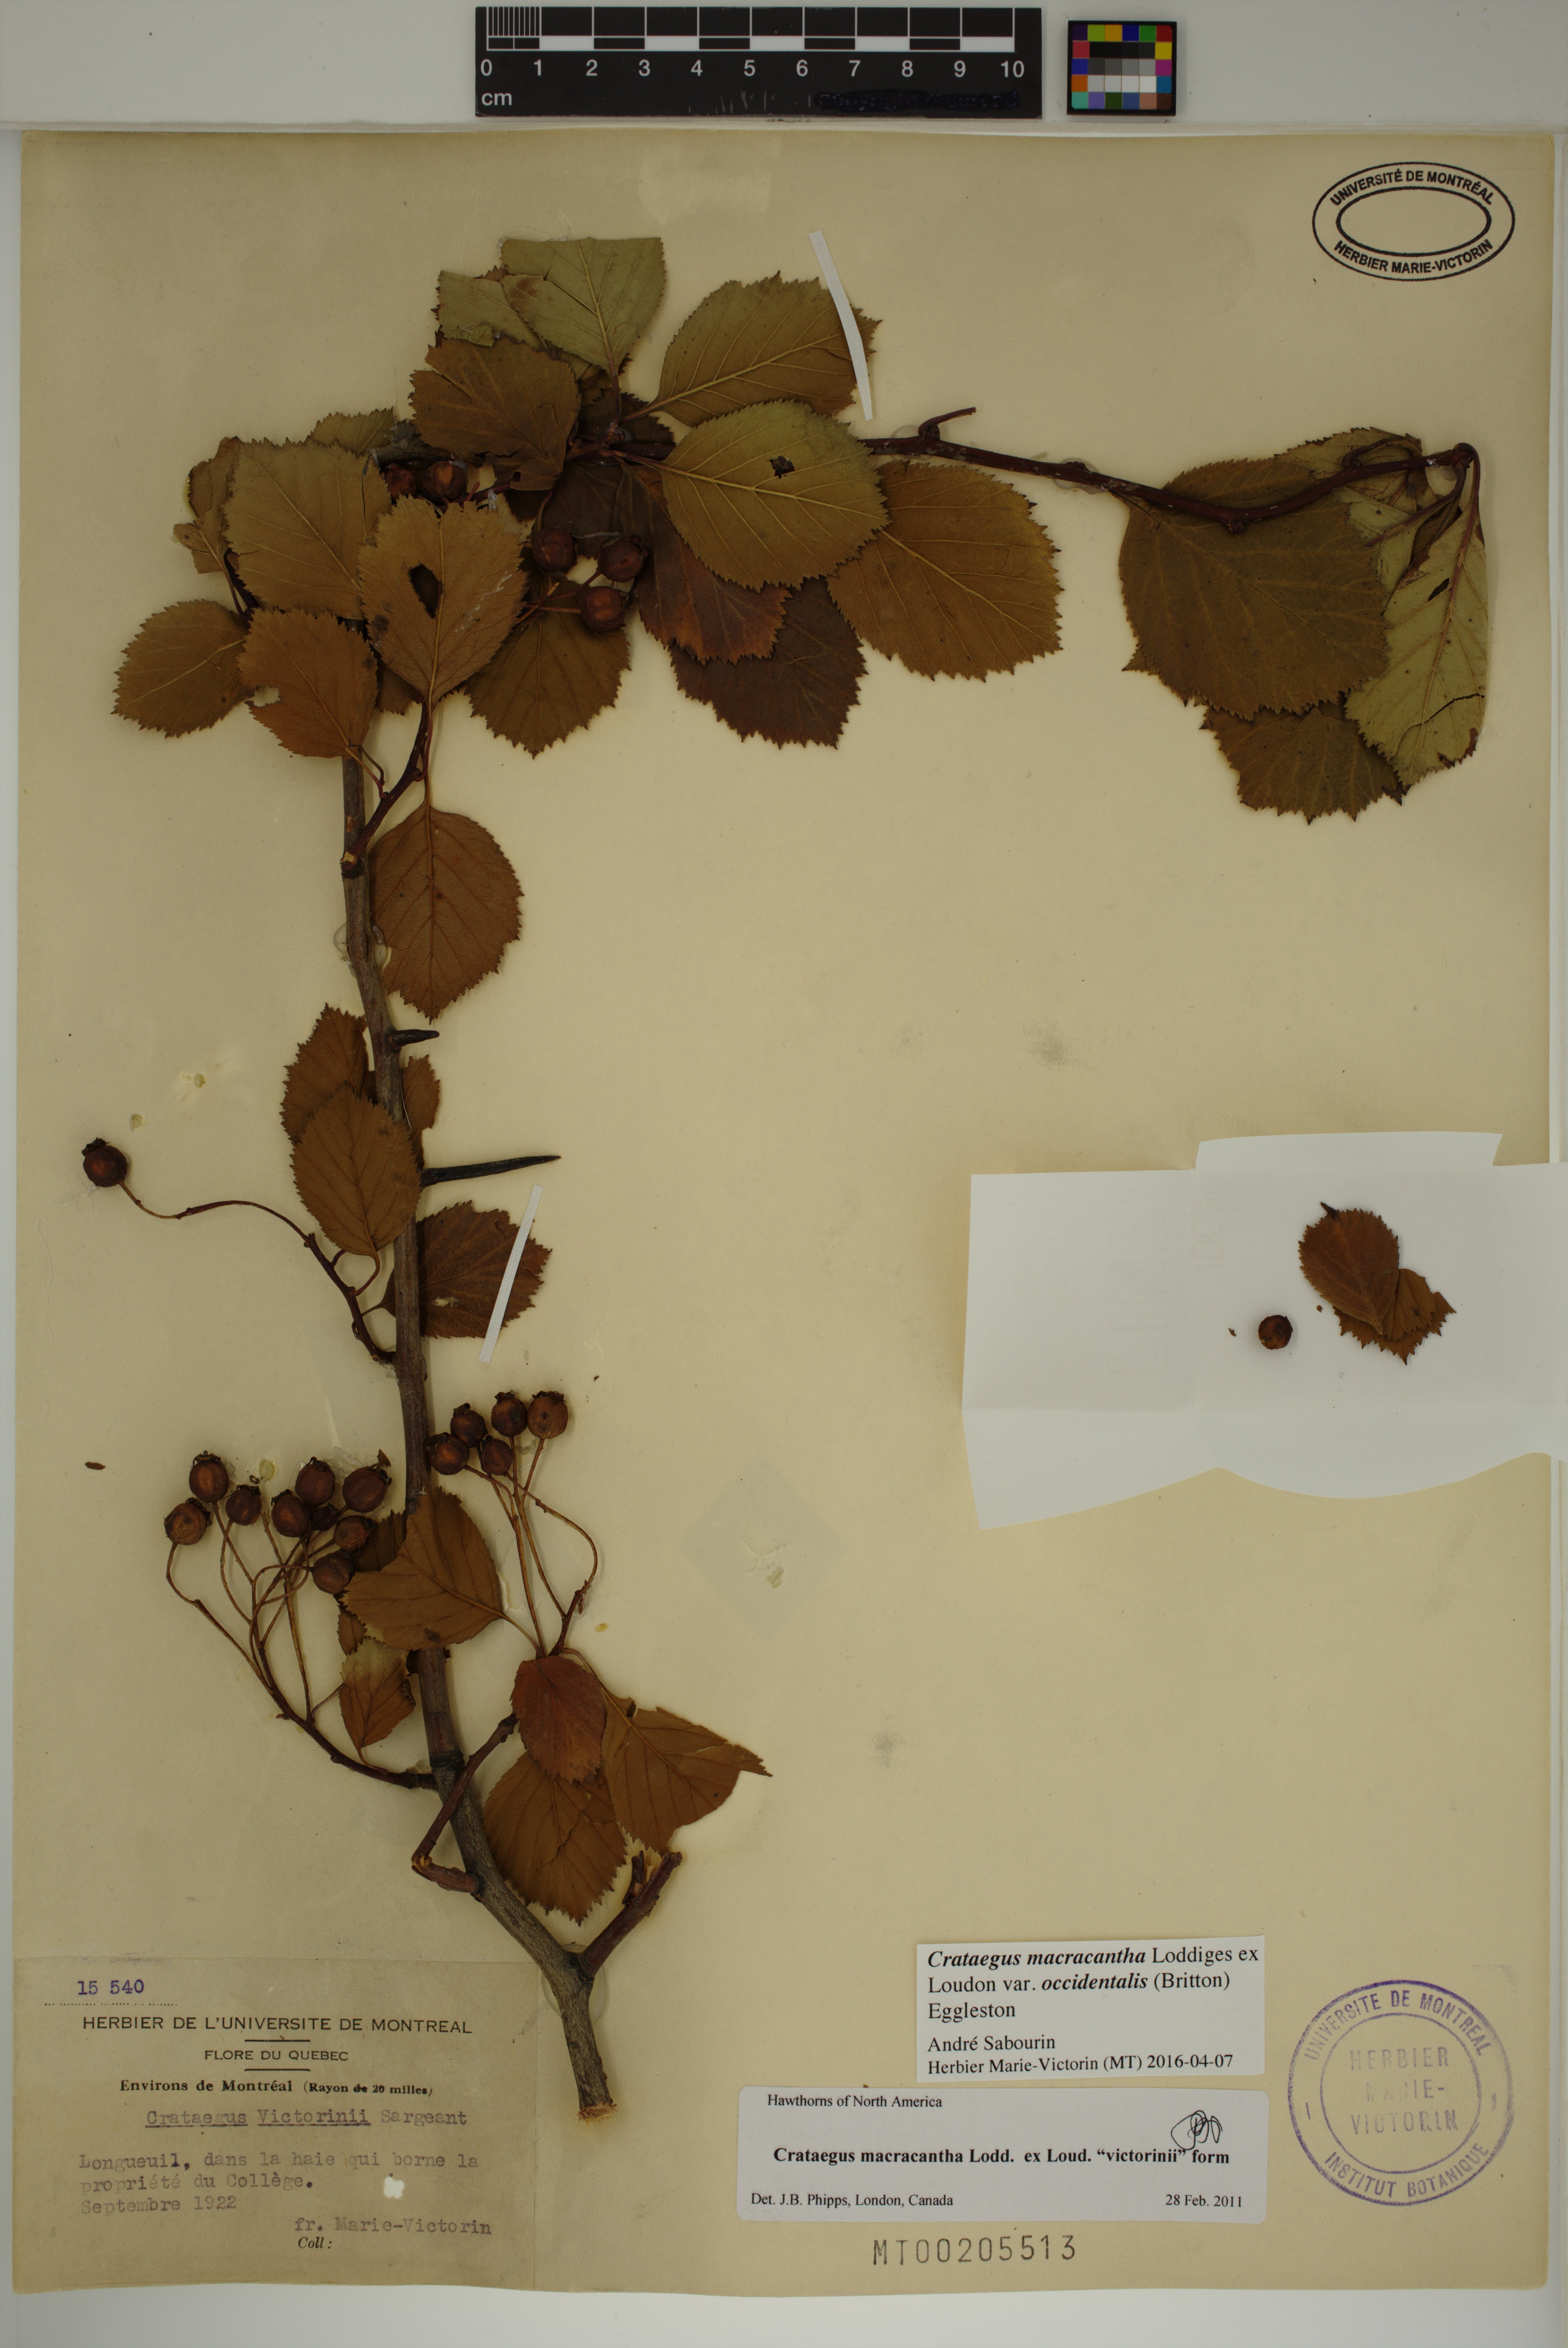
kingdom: Plantae
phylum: Tracheophyta
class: Magnoliopsida
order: Rosales
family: Rosaceae
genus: Crataegus
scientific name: Crataegus macracantha
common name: Large-thorn hawthorn
